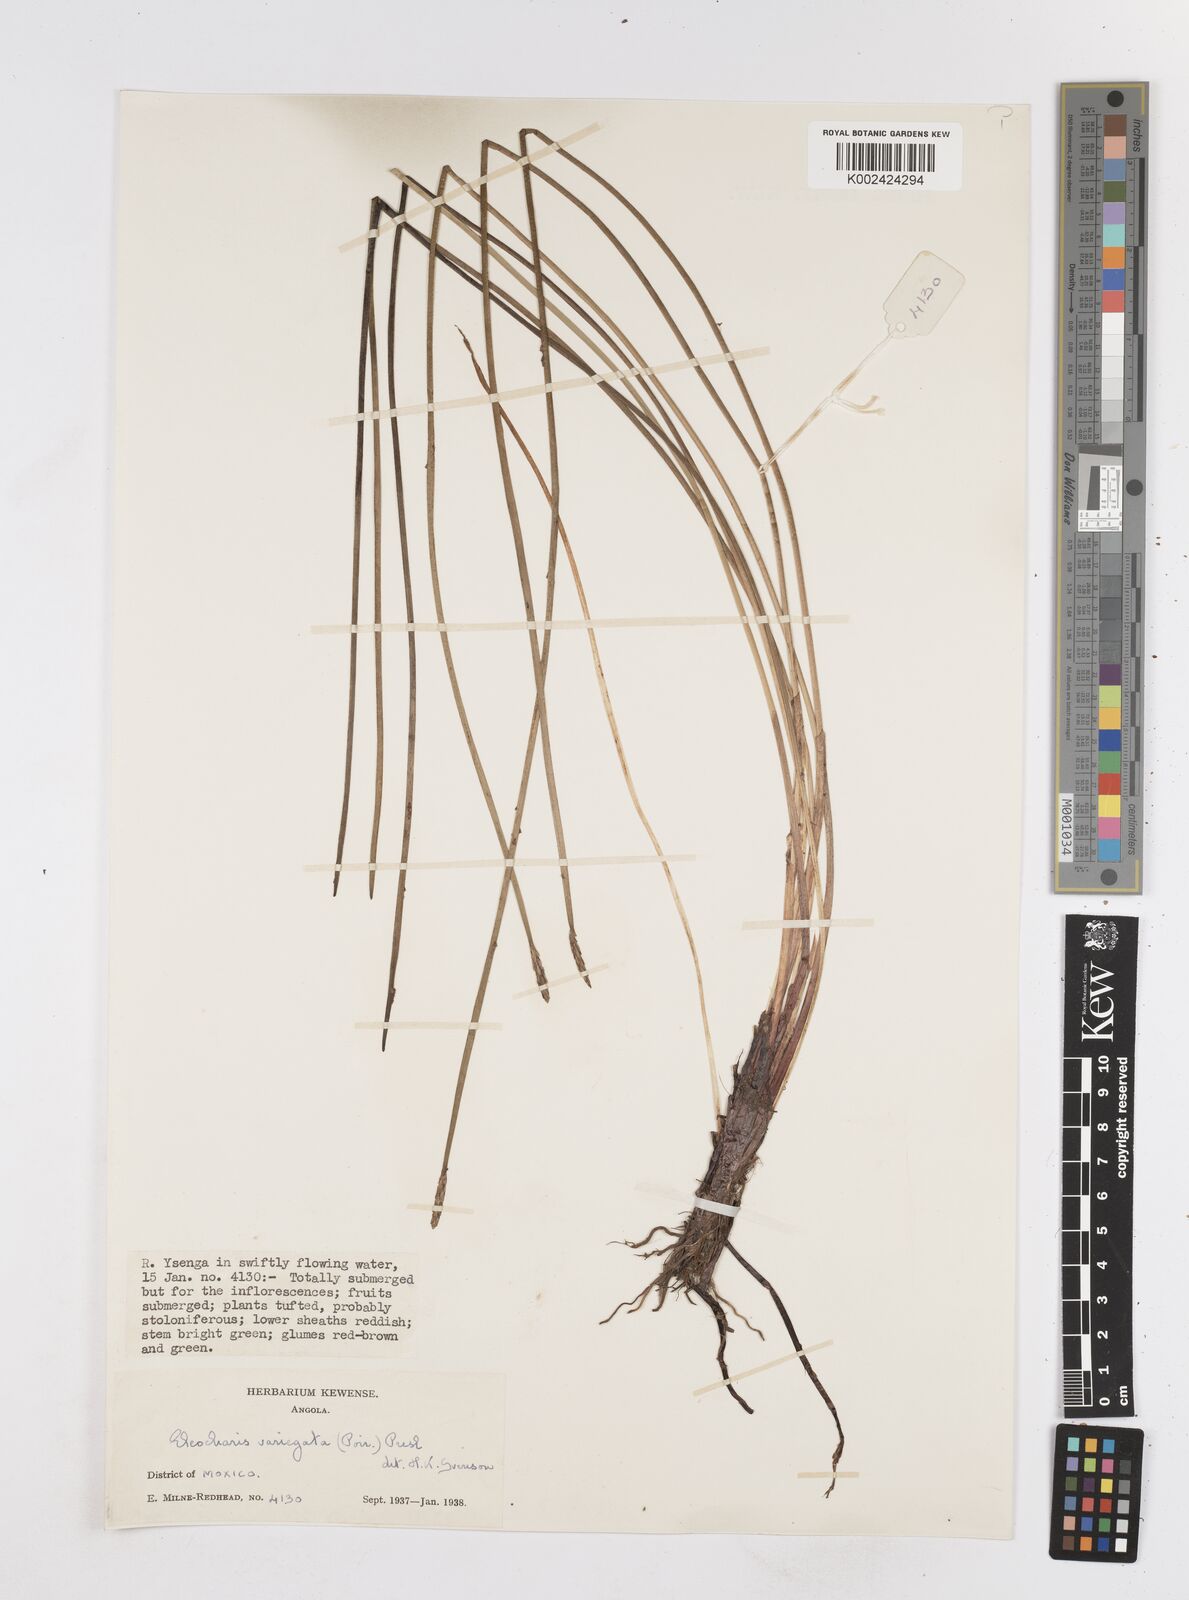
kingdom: Plantae
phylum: Tracheophyta
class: Liliopsida
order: Poales
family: Cyperaceae
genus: Eleocharis
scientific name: Eleocharis variegata
